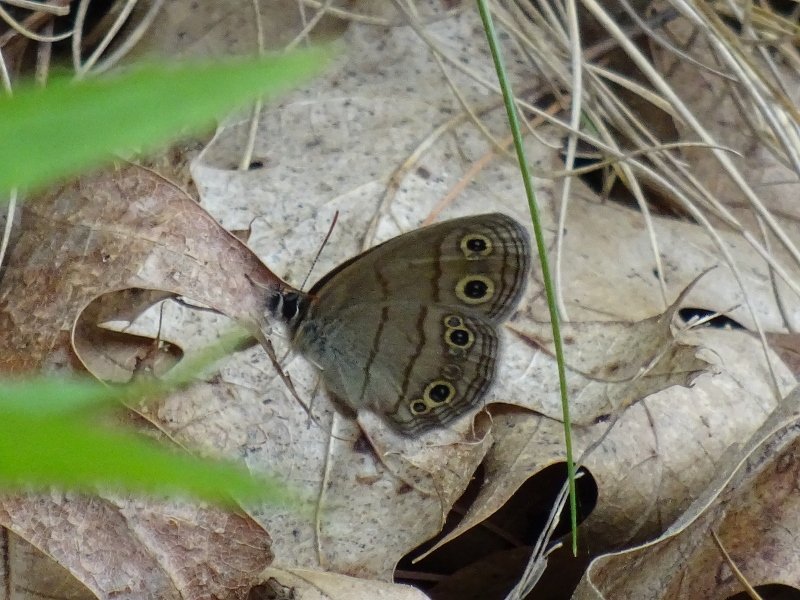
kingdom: Animalia
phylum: Arthropoda
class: Insecta
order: Lepidoptera
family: Nymphalidae
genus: Euptychia
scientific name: Euptychia cymela
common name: Little Wood Satyr
